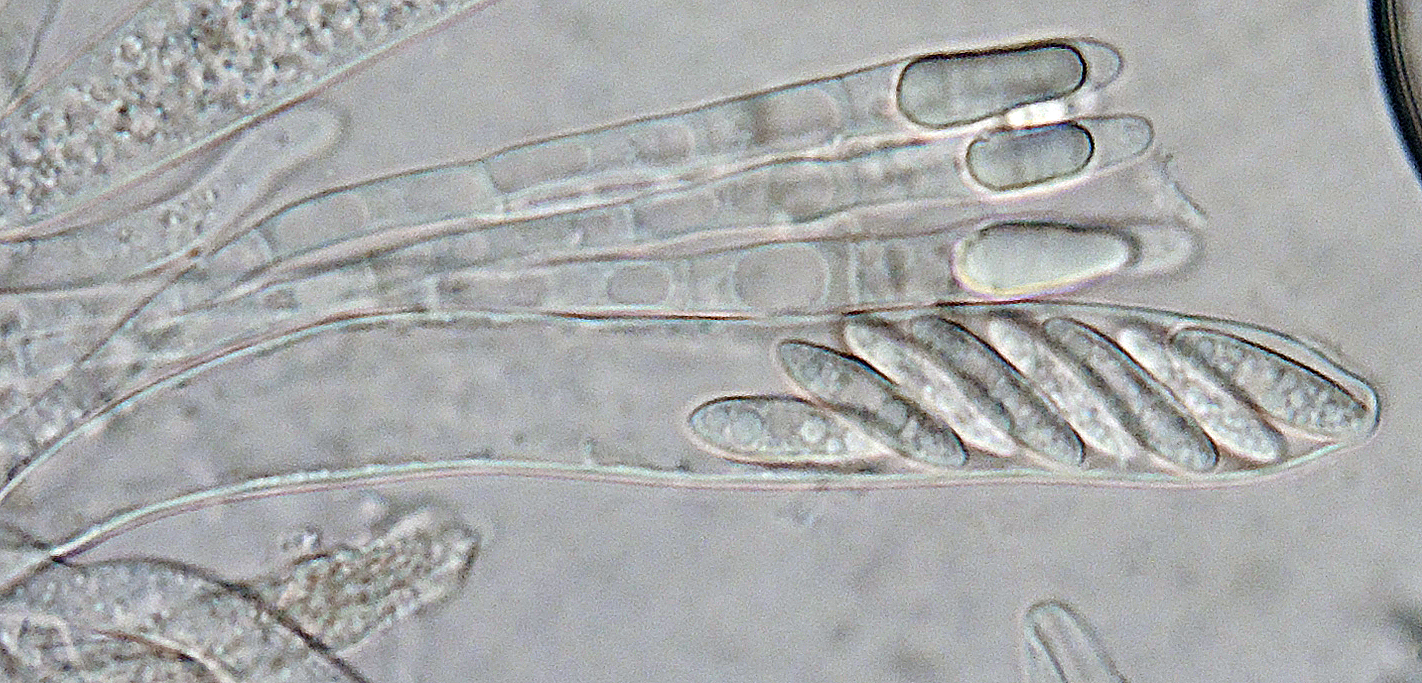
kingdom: Fungi
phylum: Ascomycota
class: Leotiomycetes
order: Helotiales
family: Dermateaceae
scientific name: Dermateaceae
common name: gråskivefamilien
